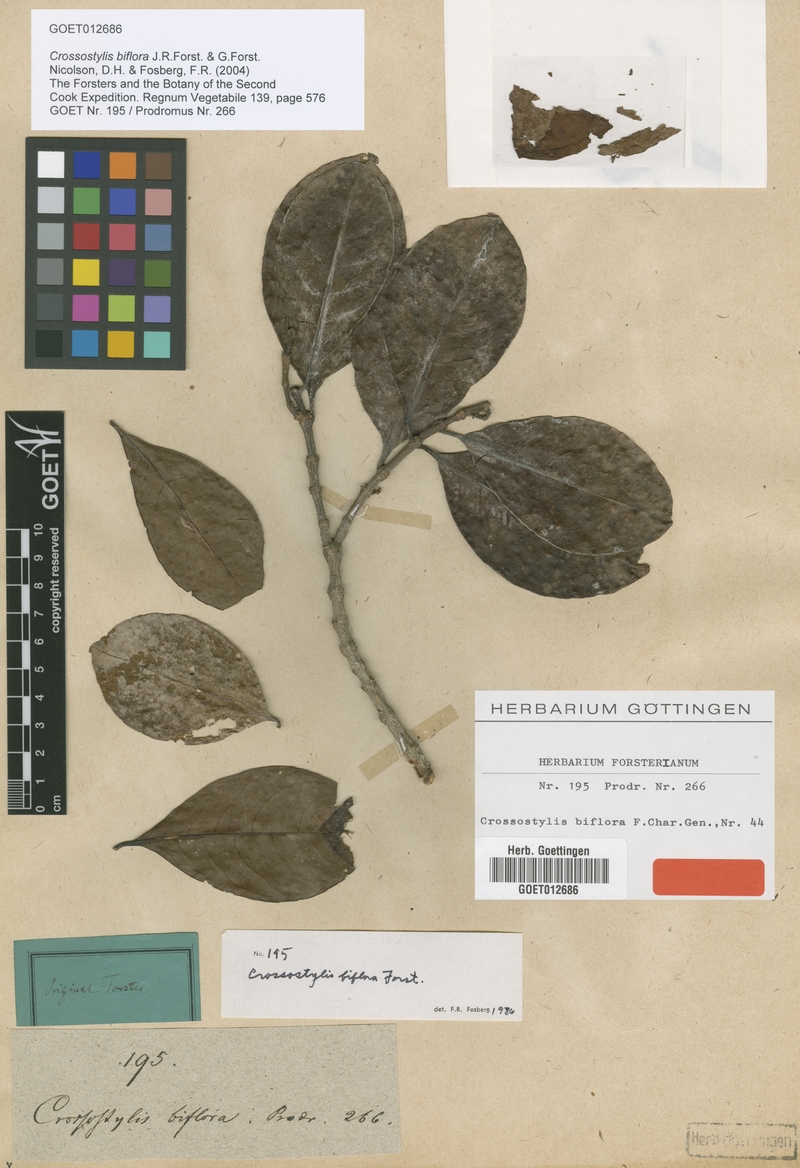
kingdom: Plantae
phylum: Tracheophyta
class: Magnoliopsida
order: Malpighiales
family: Rhizophoraceae
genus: Crossostylis
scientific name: Crossostylis biflora
